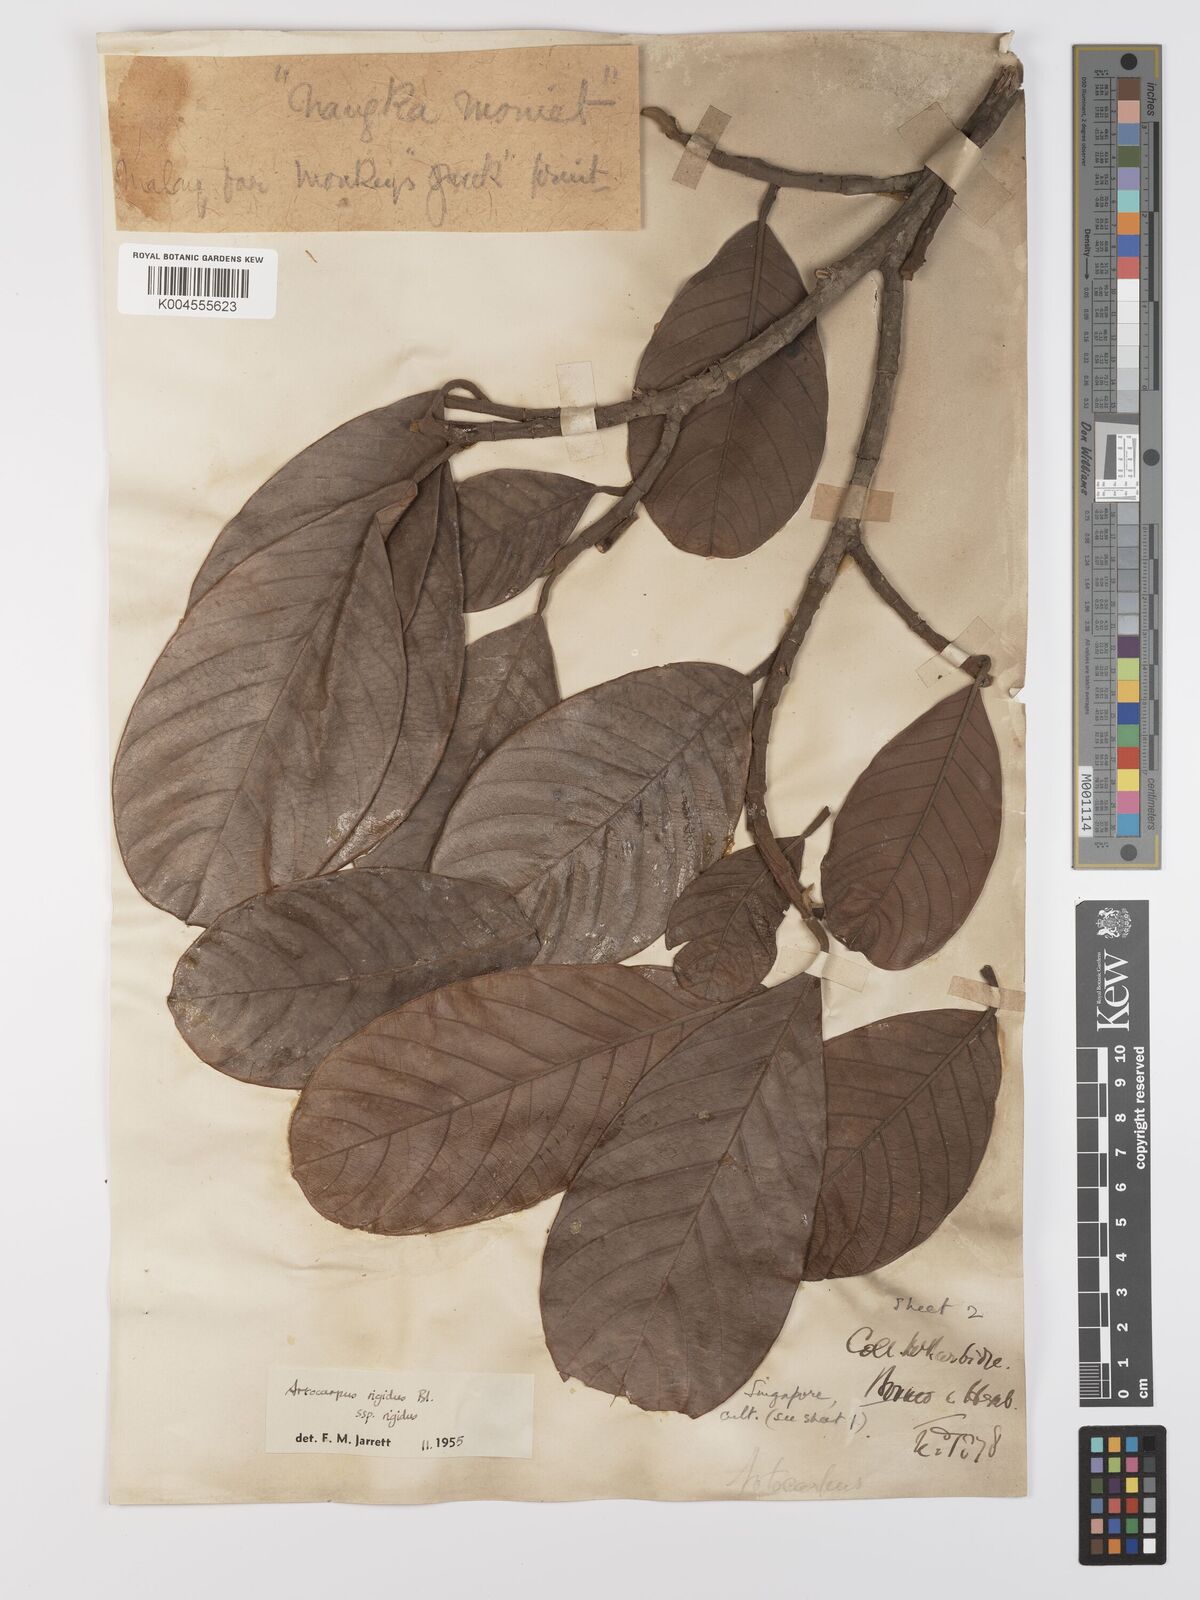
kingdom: Plantae
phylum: Tracheophyta
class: Magnoliopsida
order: Rosales
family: Moraceae
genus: Artocarpus
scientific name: Artocarpus
